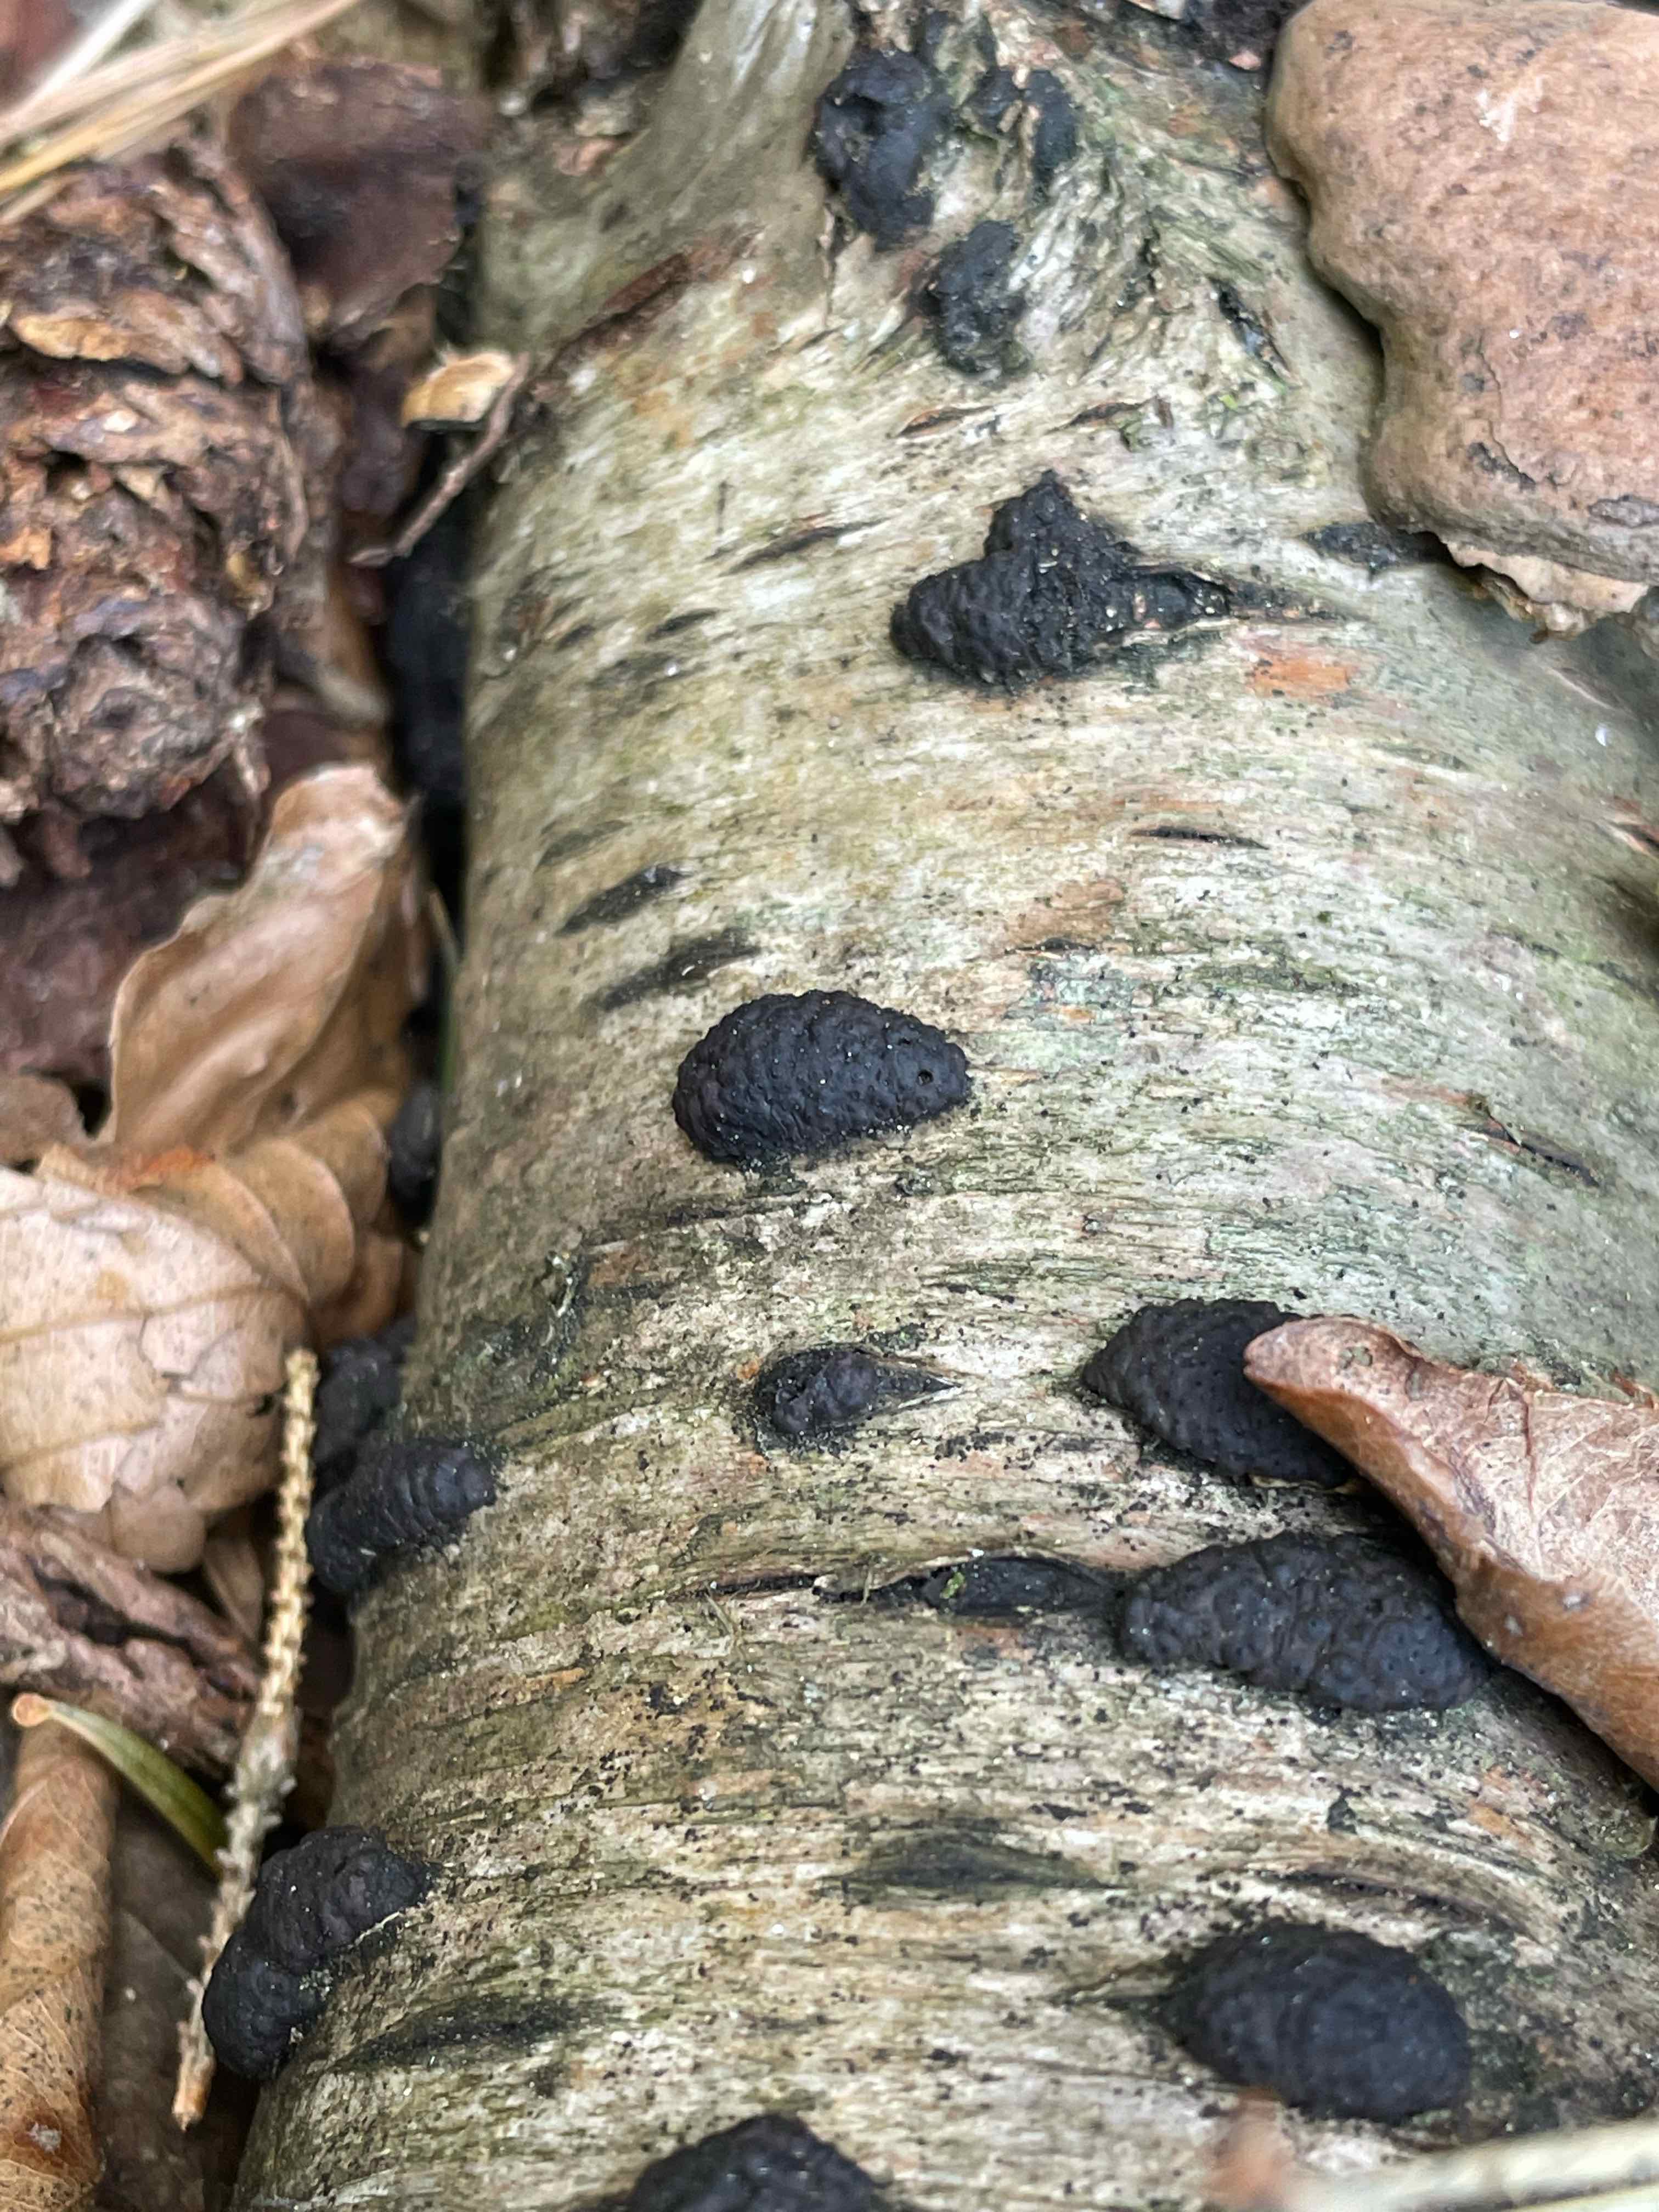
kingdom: Fungi
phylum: Ascomycota
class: Sordariomycetes
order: Xylariales
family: Hypoxylaceae
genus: Jackrogersella
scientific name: Jackrogersella multiformis
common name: foranderlig kulbær
